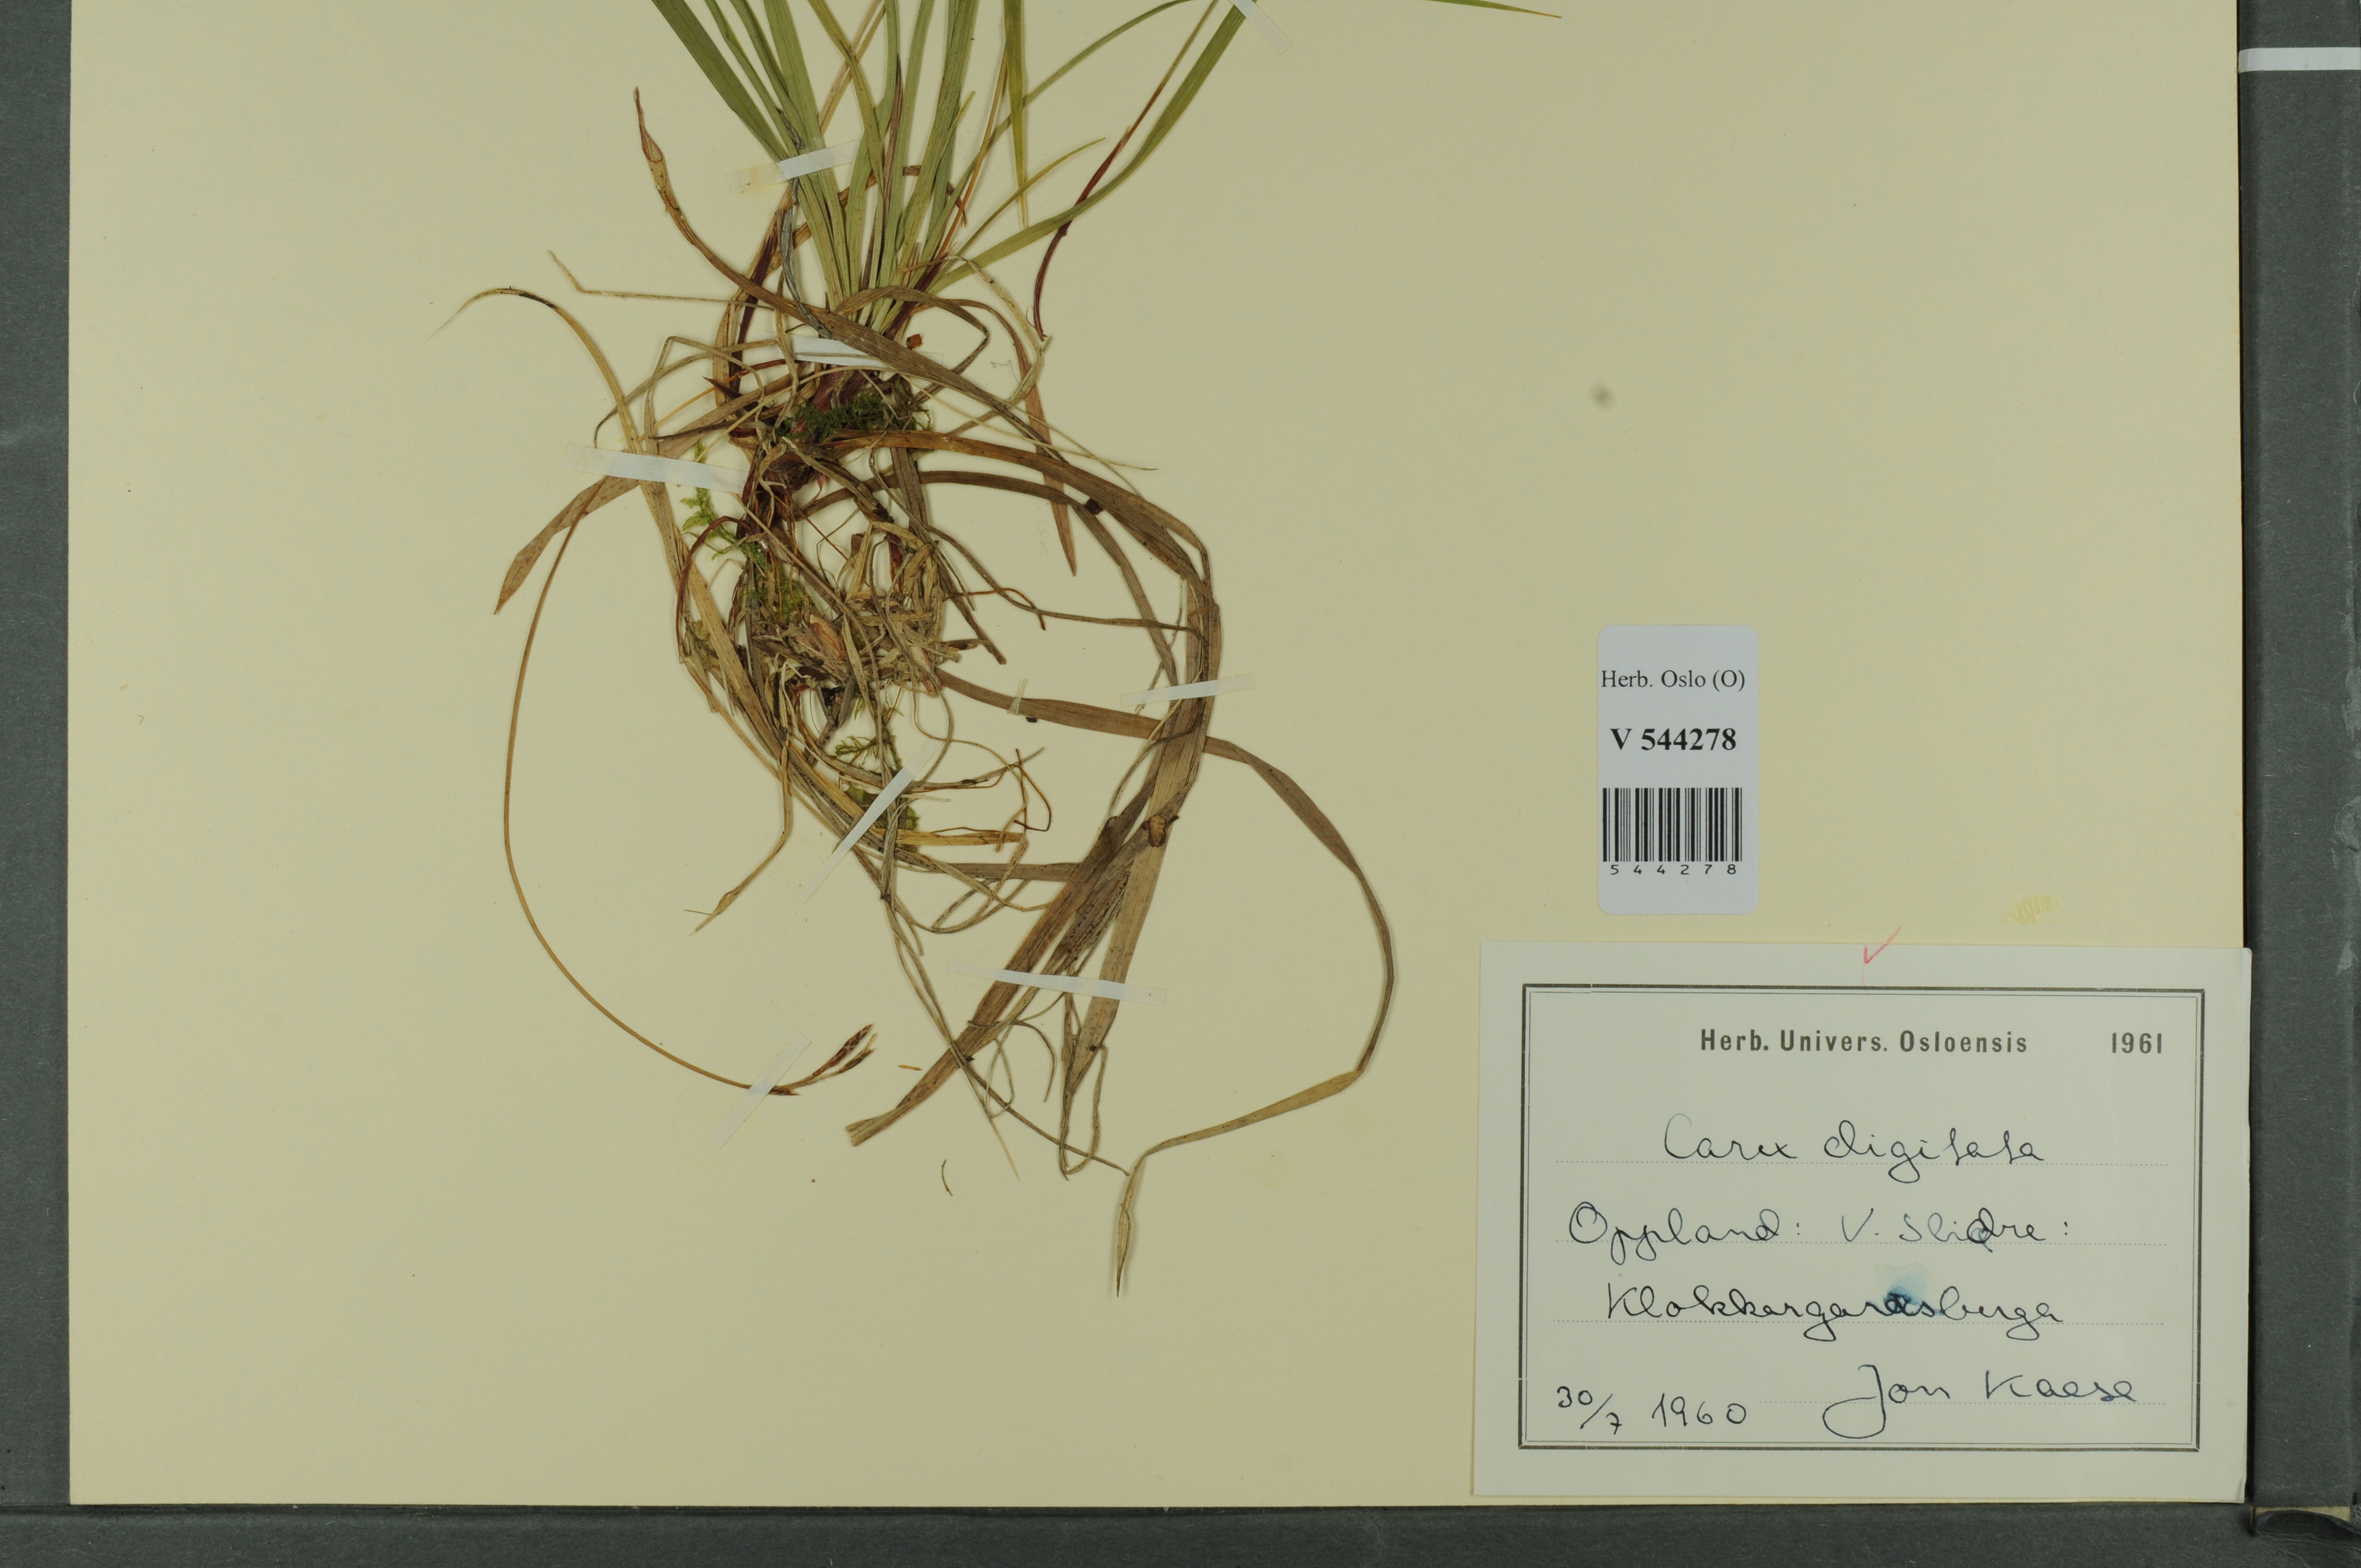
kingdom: Plantae
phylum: Tracheophyta
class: Liliopsida
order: Poales
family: Cyperaceae
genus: Carex
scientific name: Carex digitata
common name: Fingered sedge
